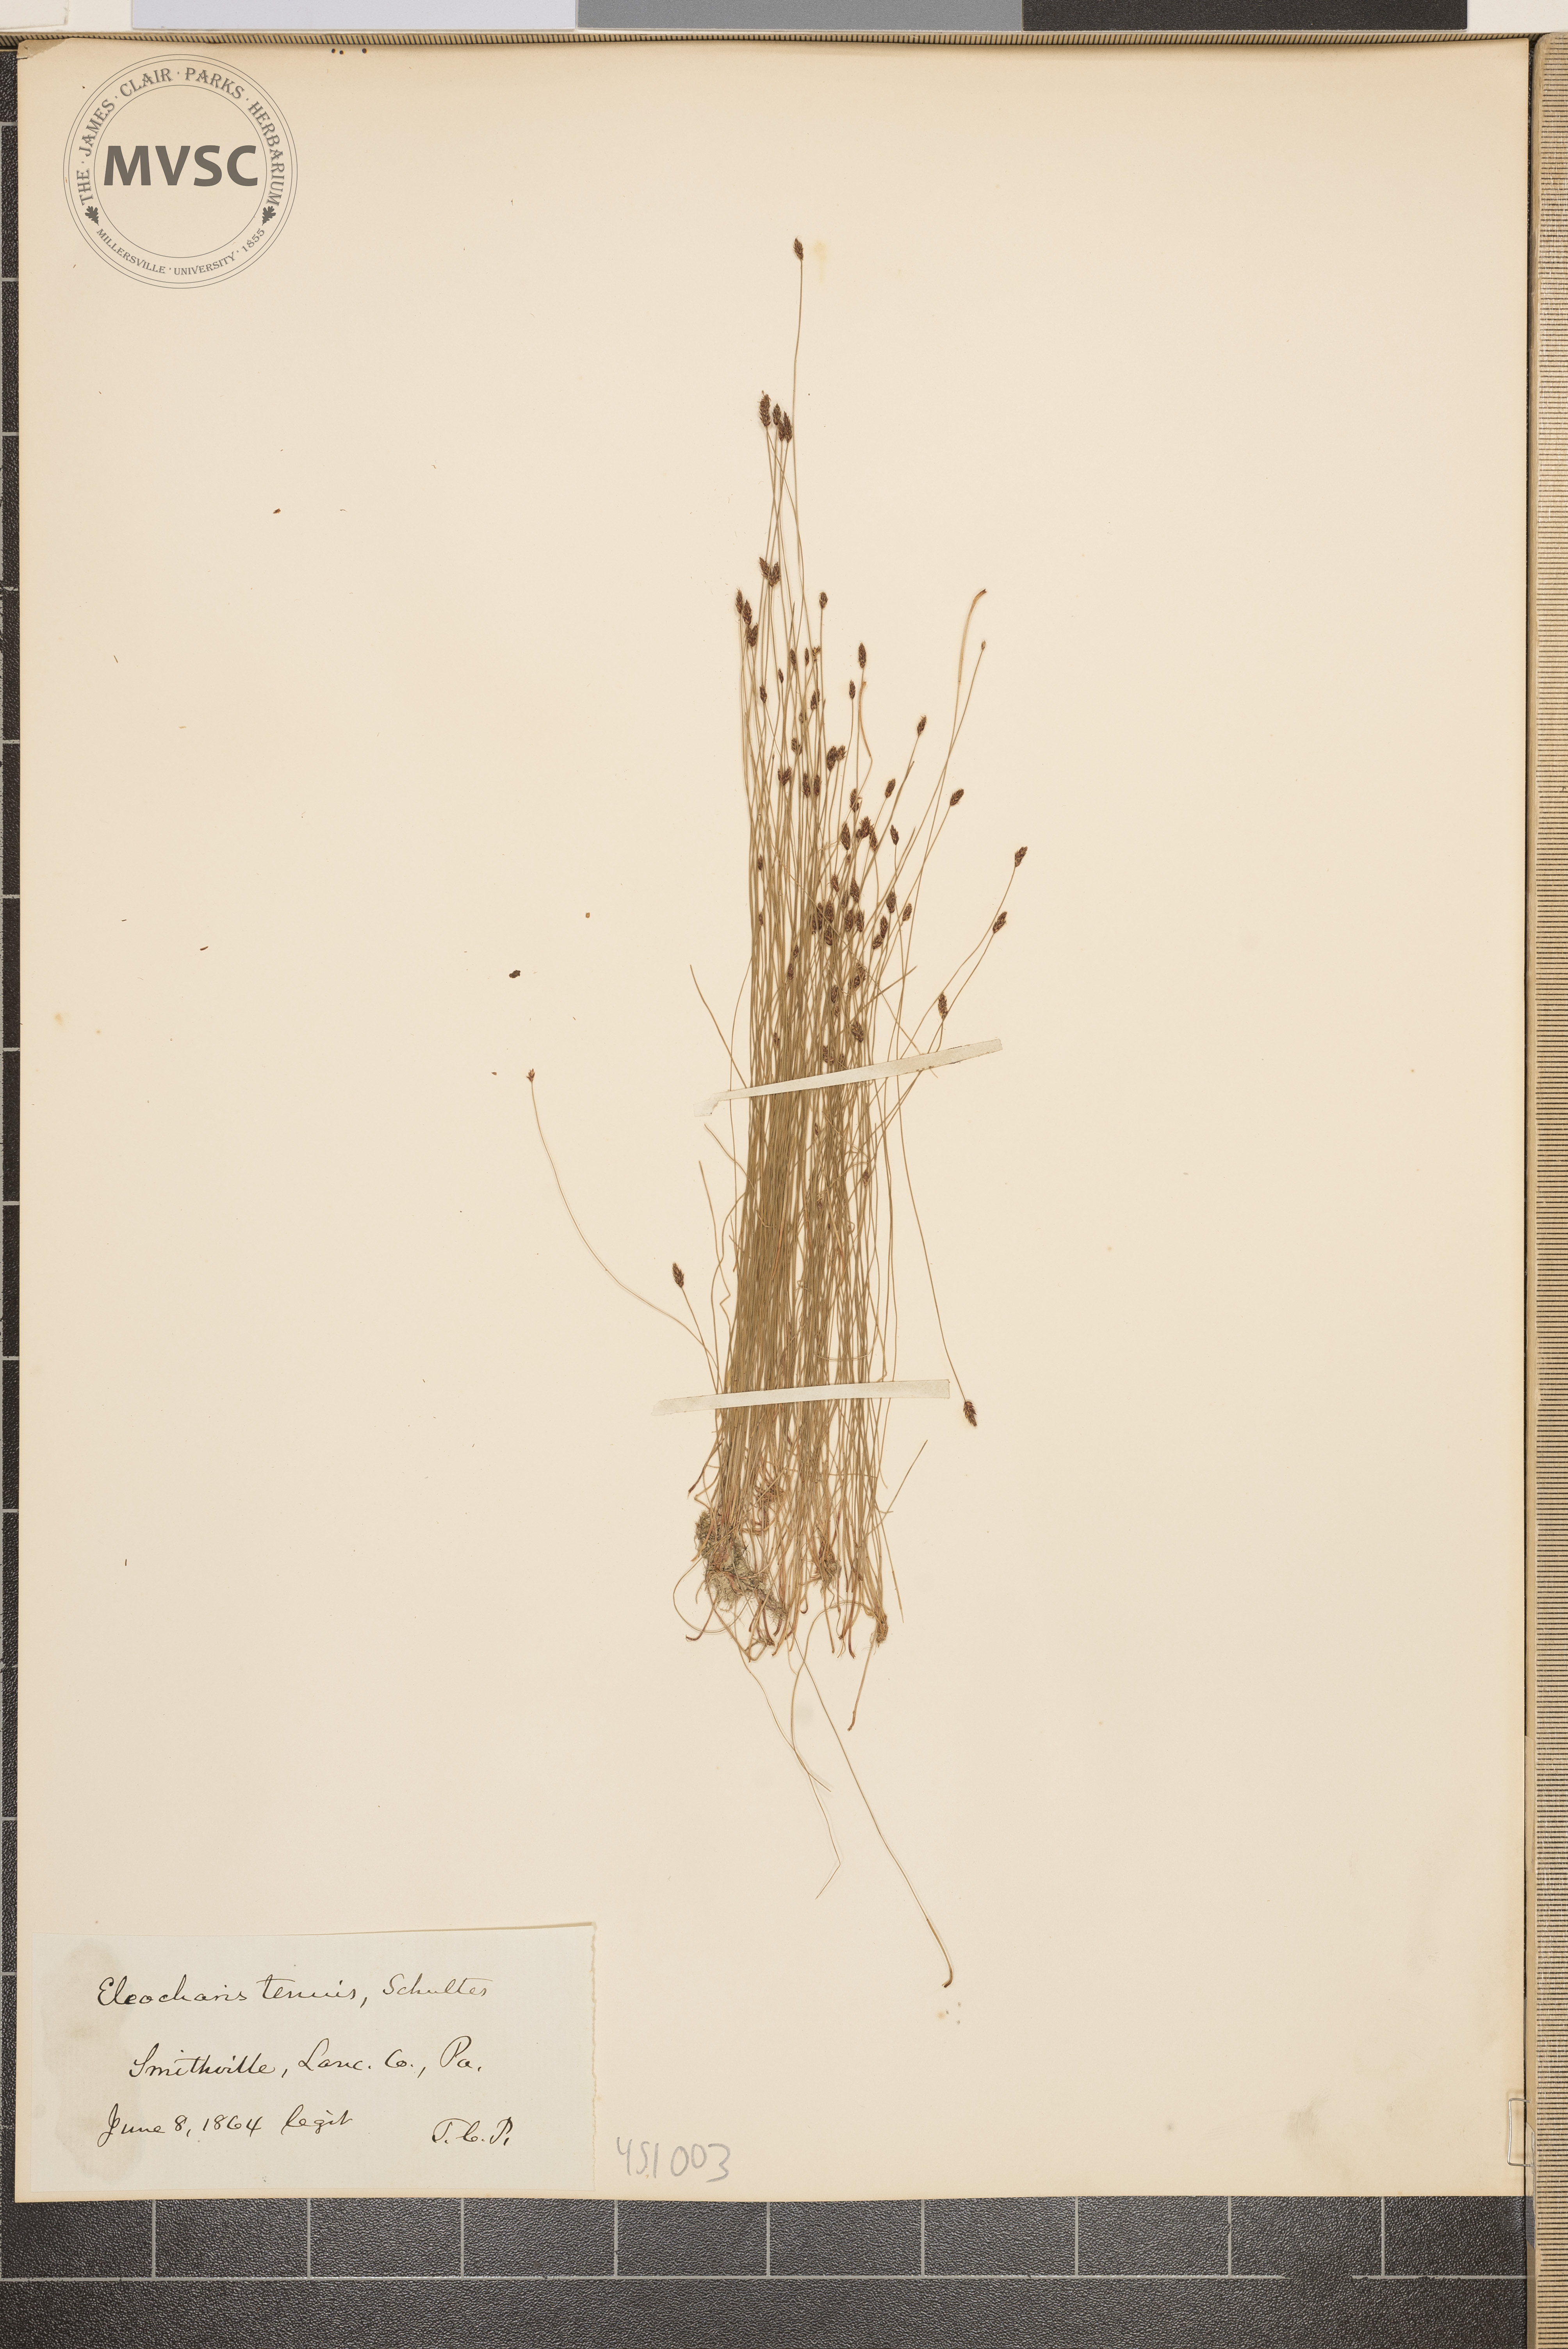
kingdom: Plantae
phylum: Tracheophyta
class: Liliopsida
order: Poales
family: Cyperaceae
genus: Eleocharis
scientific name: Eleocharis tenuis
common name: Dog's hair
